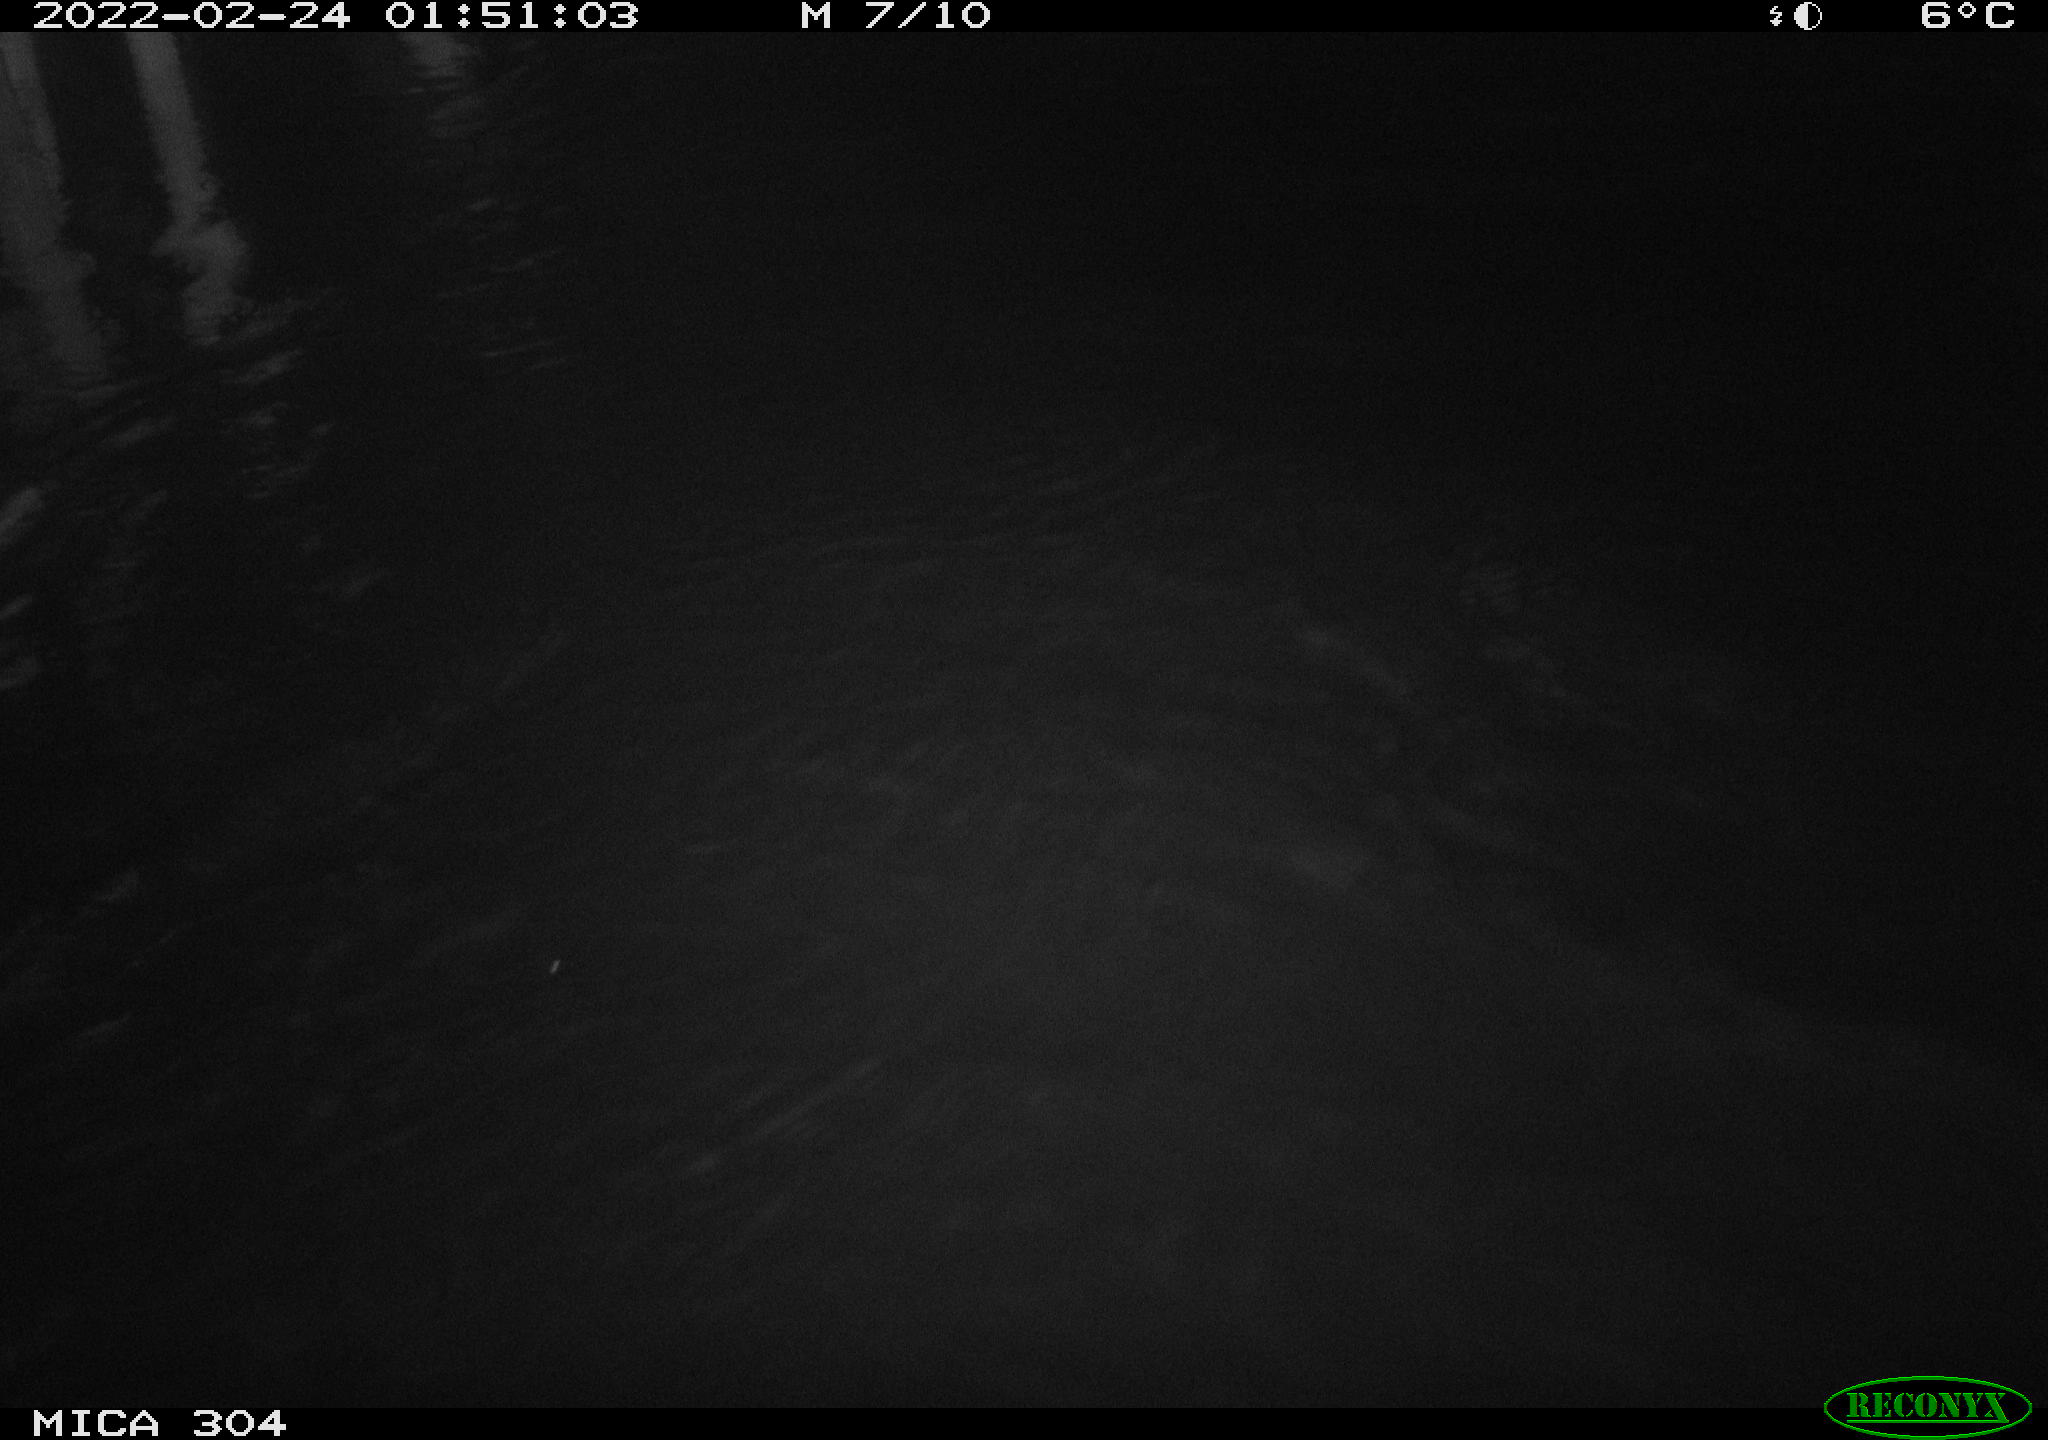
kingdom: Animalia
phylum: Chordata
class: Aves
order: Anseriformes
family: Anatidae
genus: Anas
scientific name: Anas platyrhynchos
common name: Mallard
